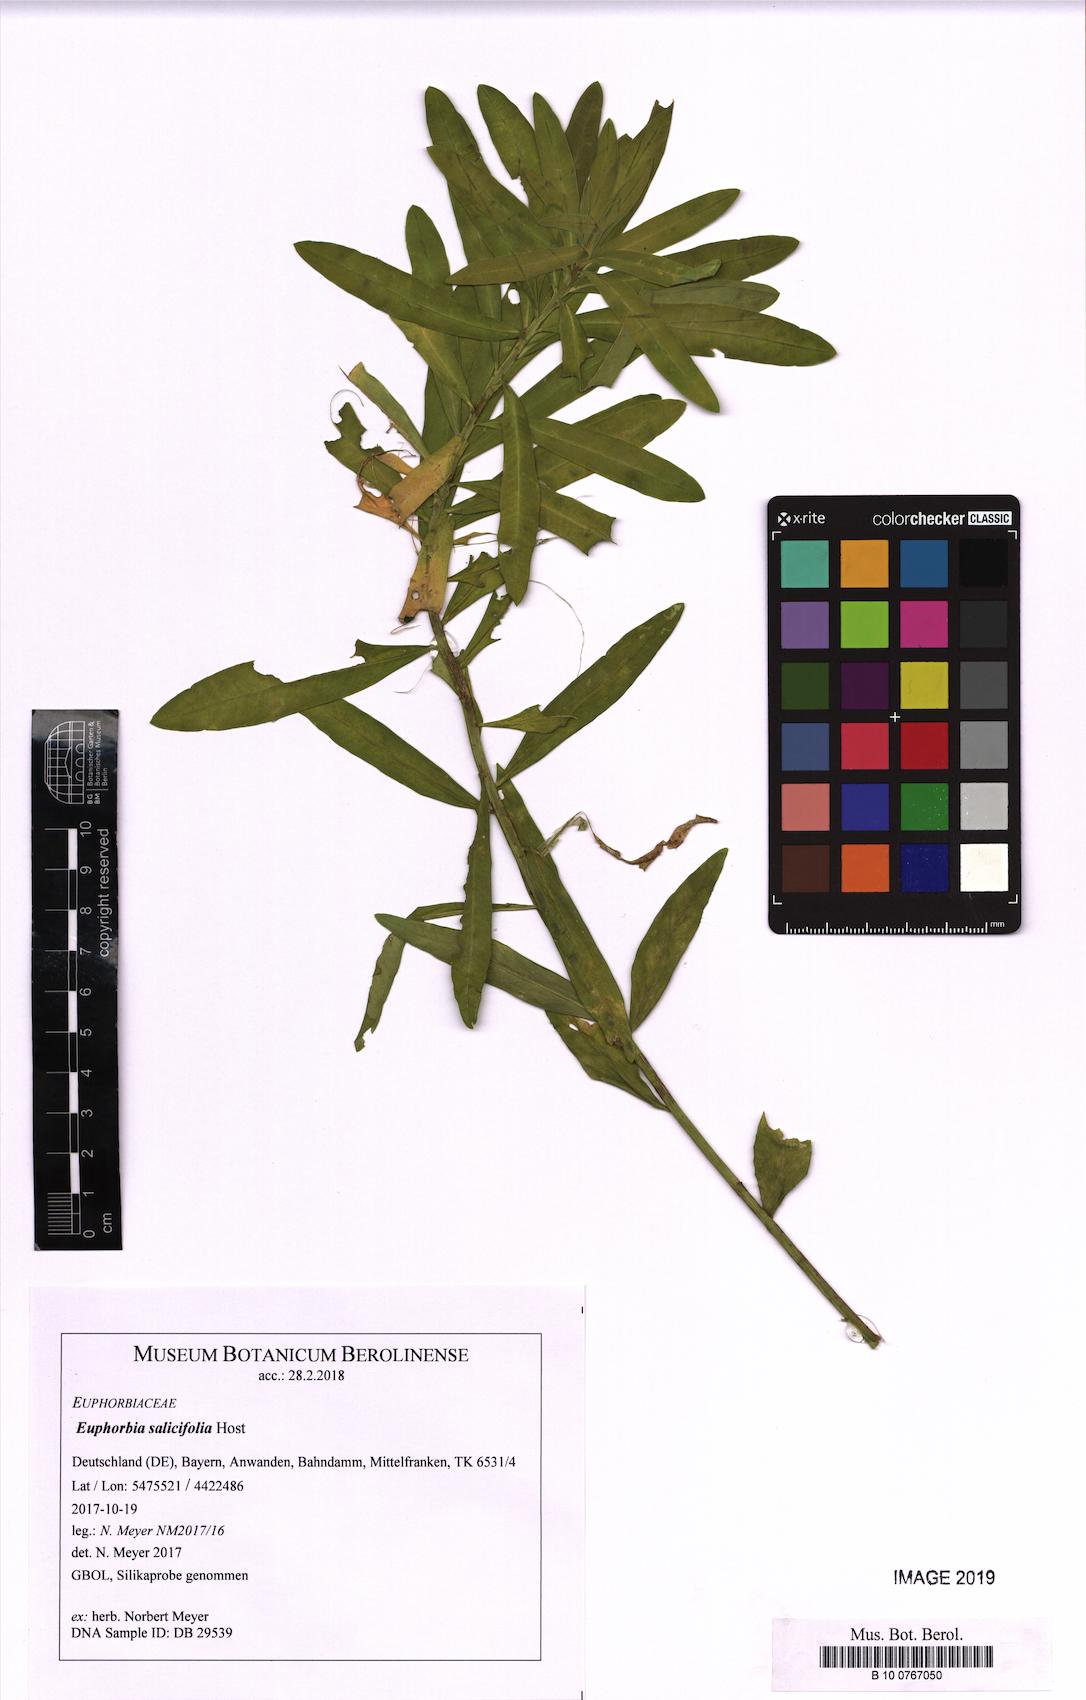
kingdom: Plantae
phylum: Tracheophyta
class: Magnoliopsida
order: Malpighiales
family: Euphorbiaceae
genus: Euphorbia
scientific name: Euphorbia salicifolia
